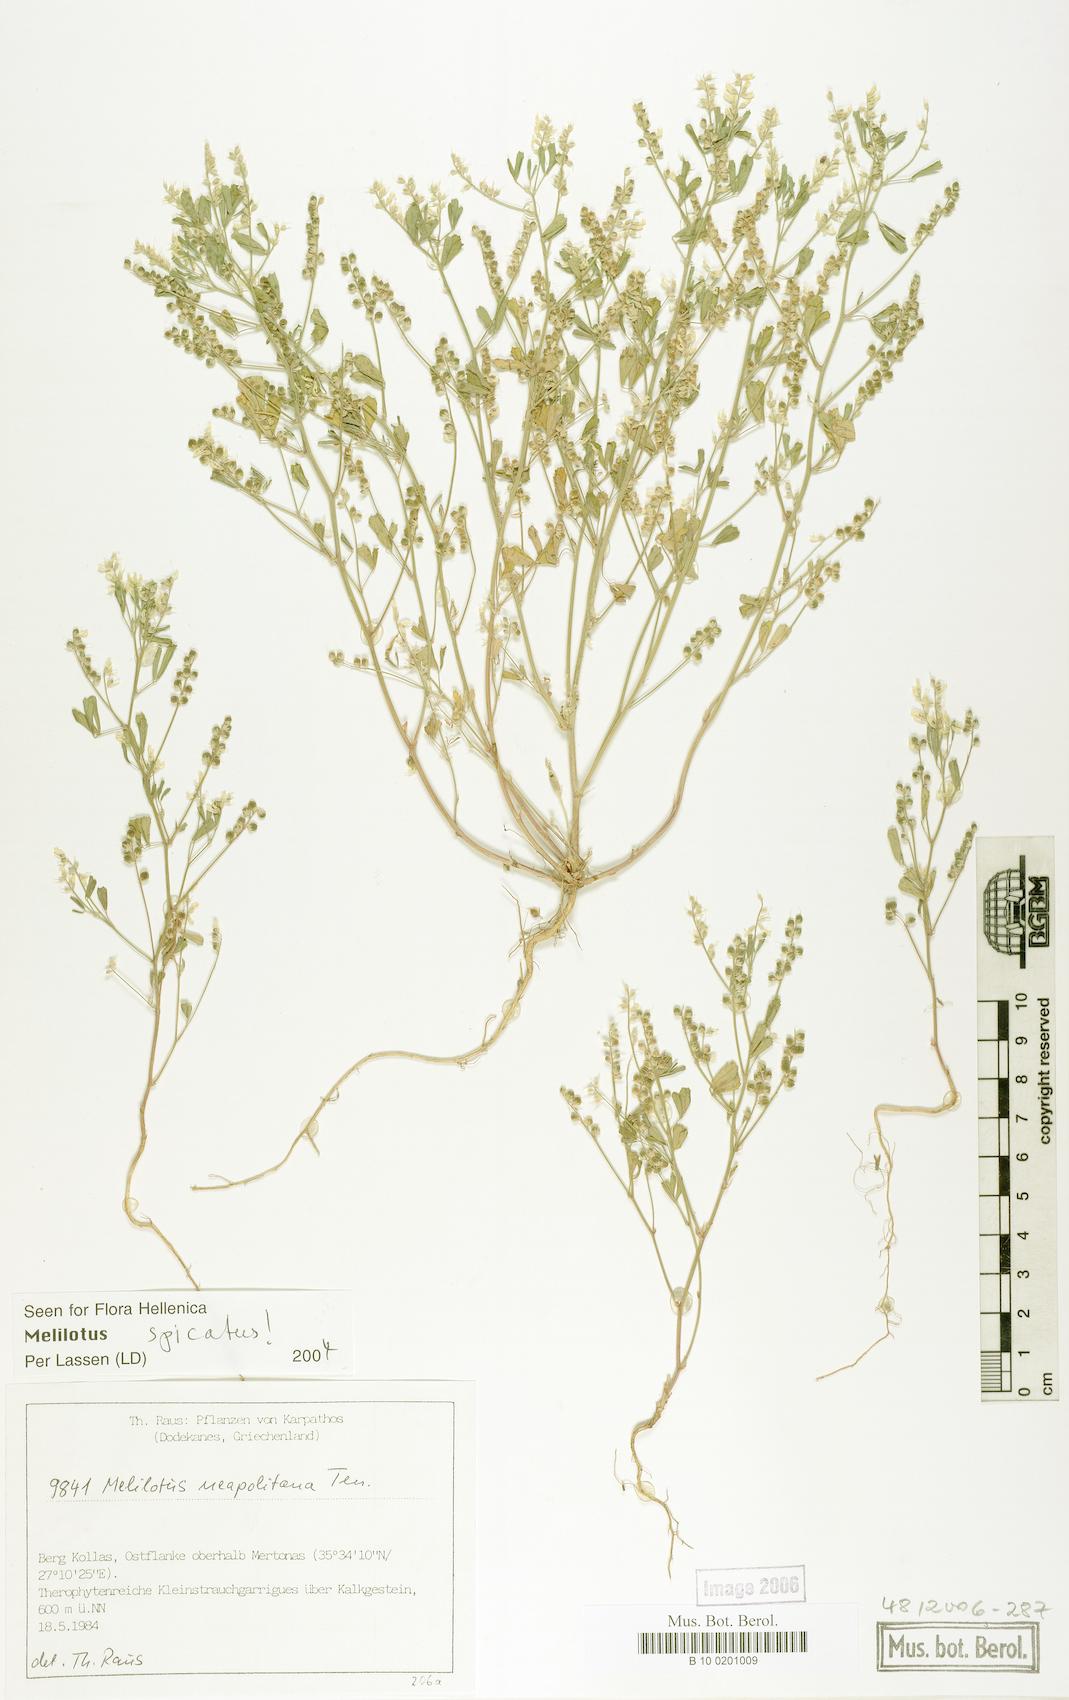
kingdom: Plantae
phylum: Tracheophyta
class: Magnoliopsida
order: Fabales
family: Fabaceae
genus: Melilotus
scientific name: Melilotus neapolitanus
